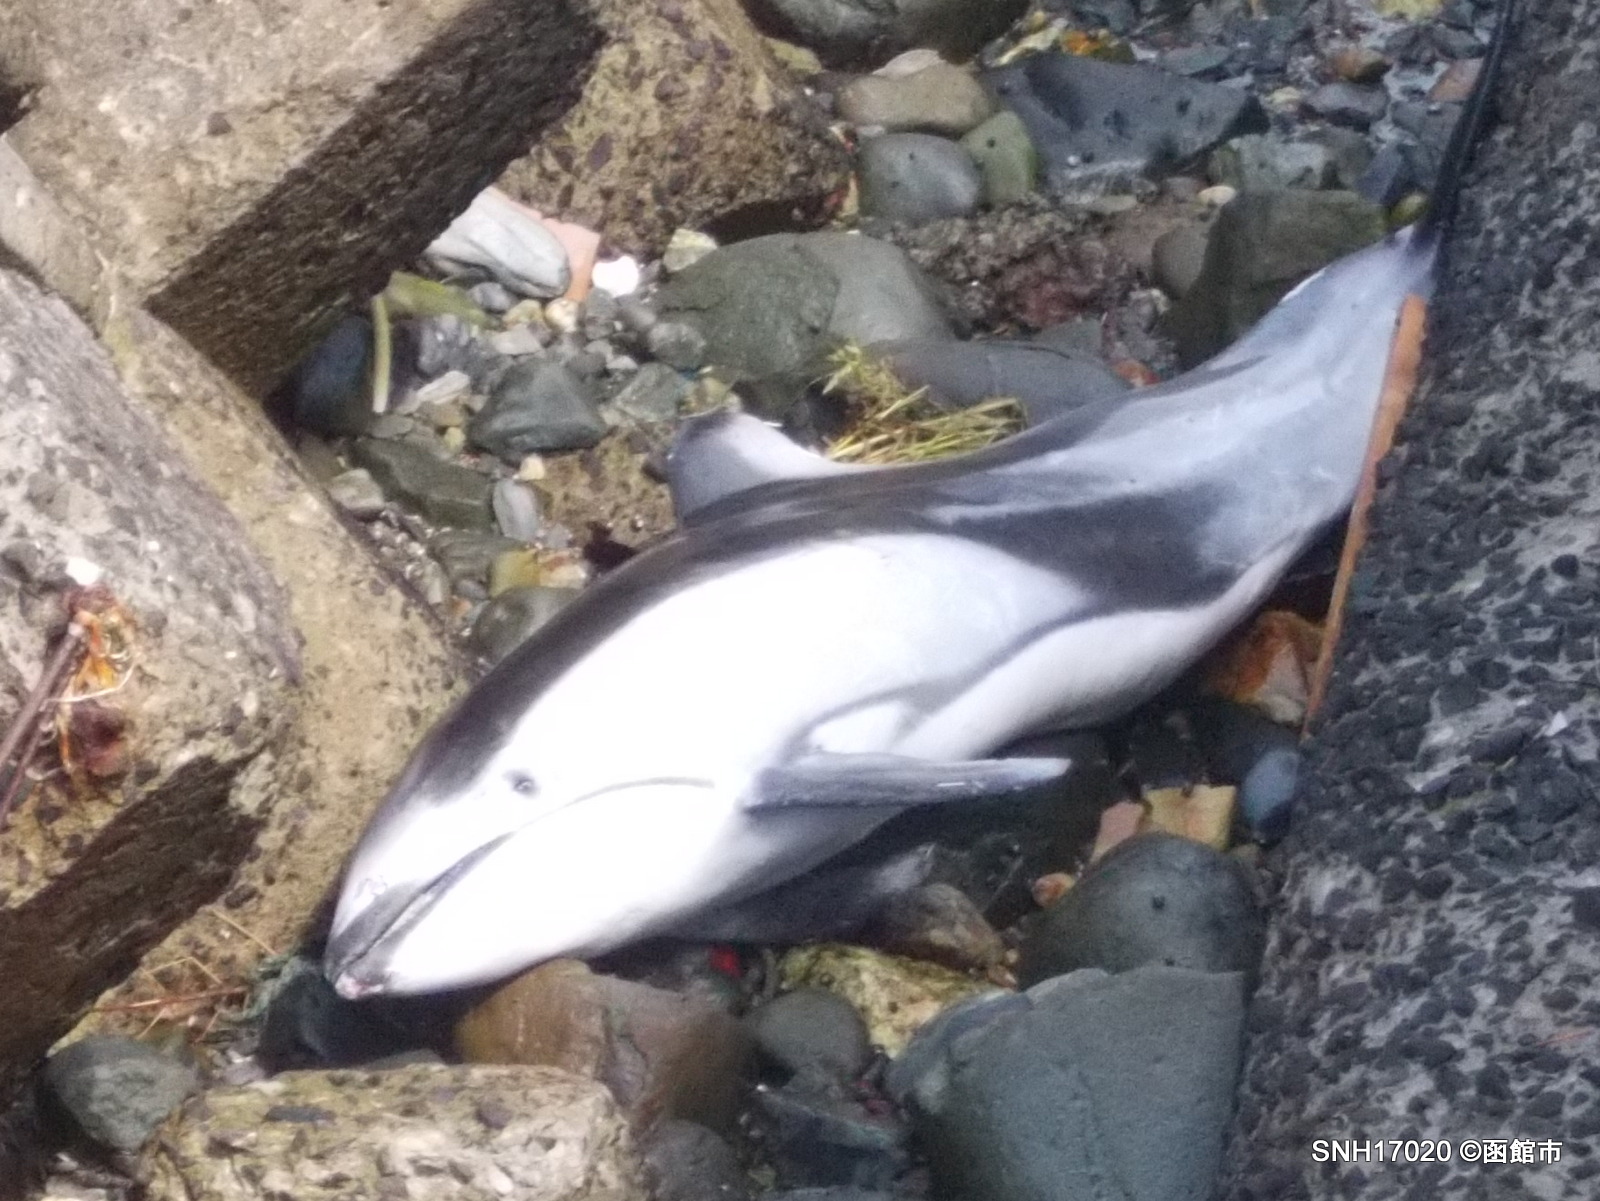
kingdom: Animalia
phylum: Chordata
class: Mammalia
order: Cetacea
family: Delphinidae
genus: Lagenorhynchus
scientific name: Lagenorhynchus obliquidens
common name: Pacific white-sided dolphin
